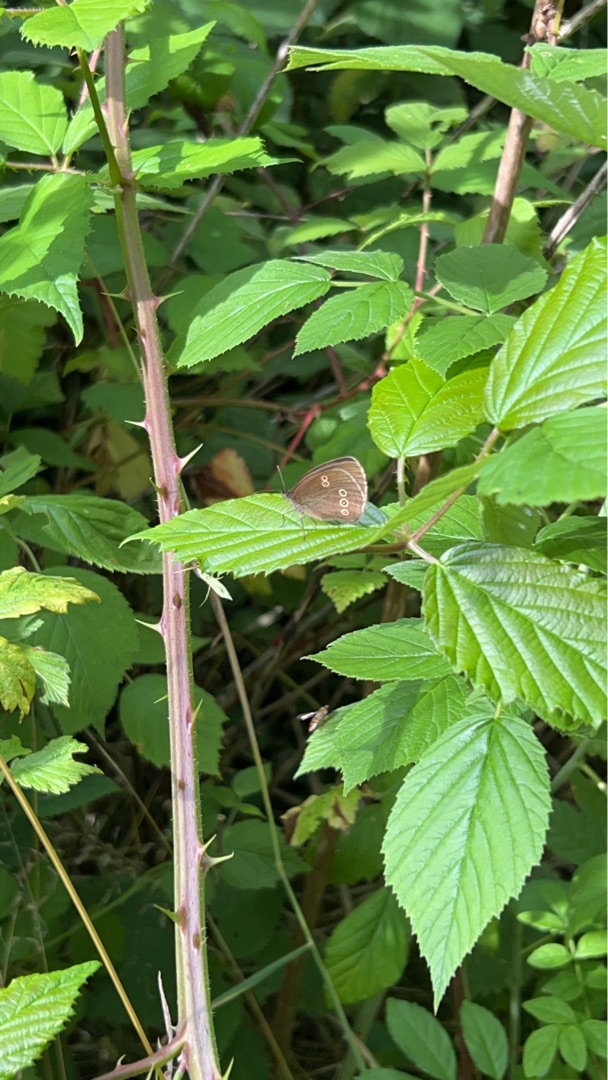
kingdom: Animalia
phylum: Arthropoda
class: Insecta
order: Lepidoptera
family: Nymphalidae
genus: Aphantopus
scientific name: Aphantopus hyperantus
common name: Engrandøje
